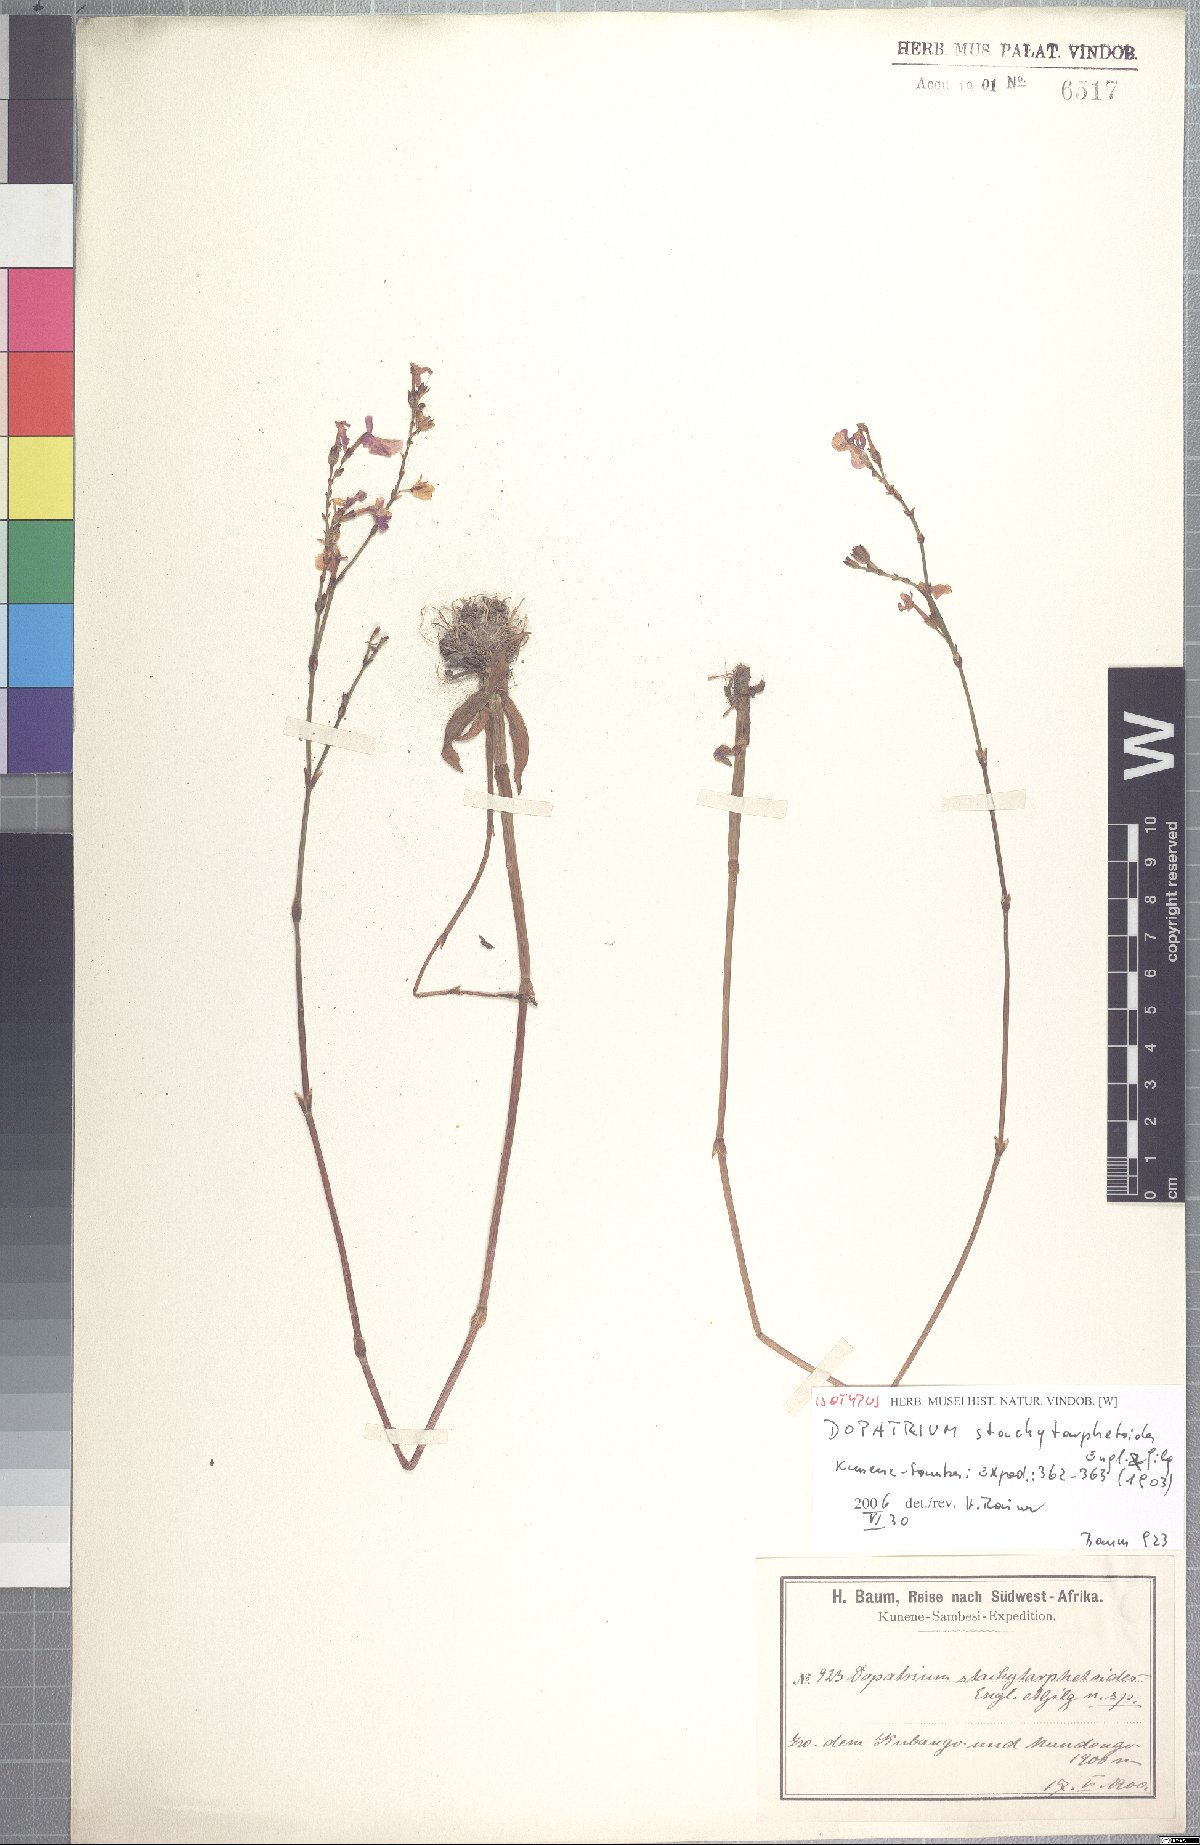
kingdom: Plantae
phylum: Tracheophyta
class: Magnoliopsida
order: Lamiales
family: Plantaginaceae
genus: Dopatrium
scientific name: Dopatrium stachytarphetoides
